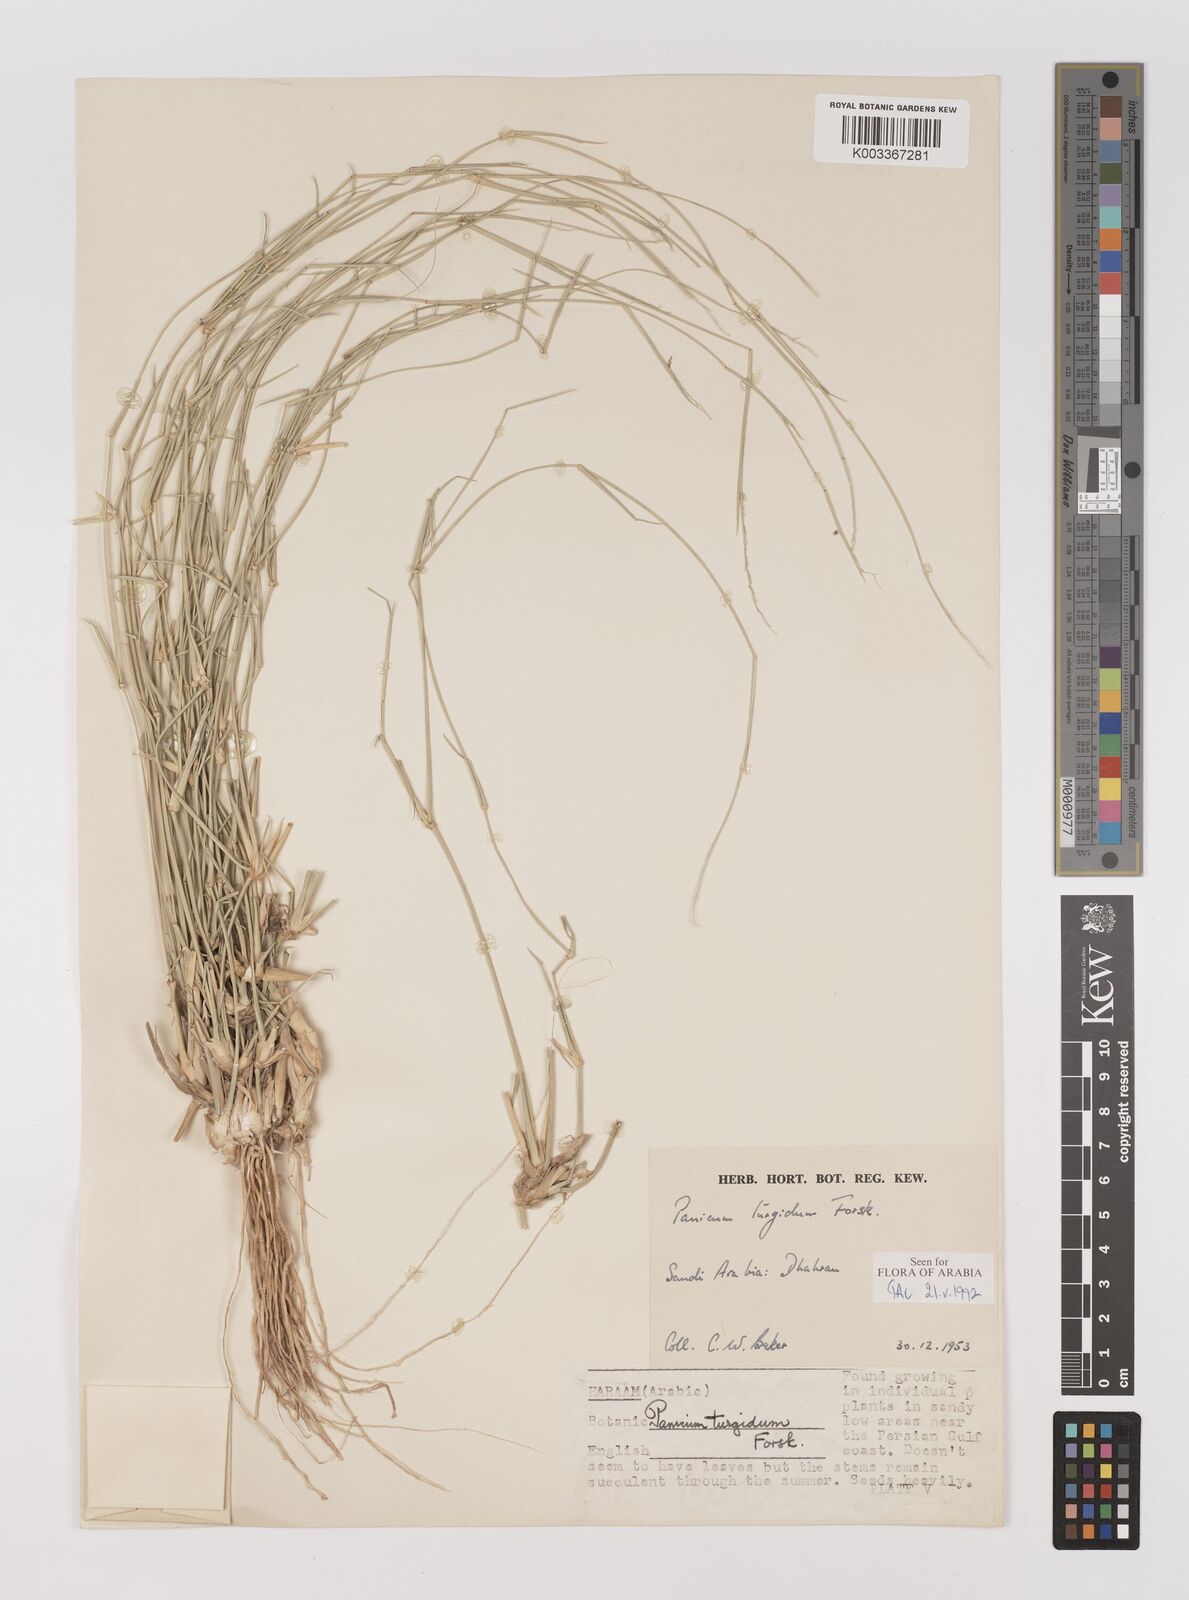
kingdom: Plantae
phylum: Tracheophyta
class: Liliopsida
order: Poales
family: Poaceae
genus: Panicum
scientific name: Panicum turgidum
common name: Desert grass
